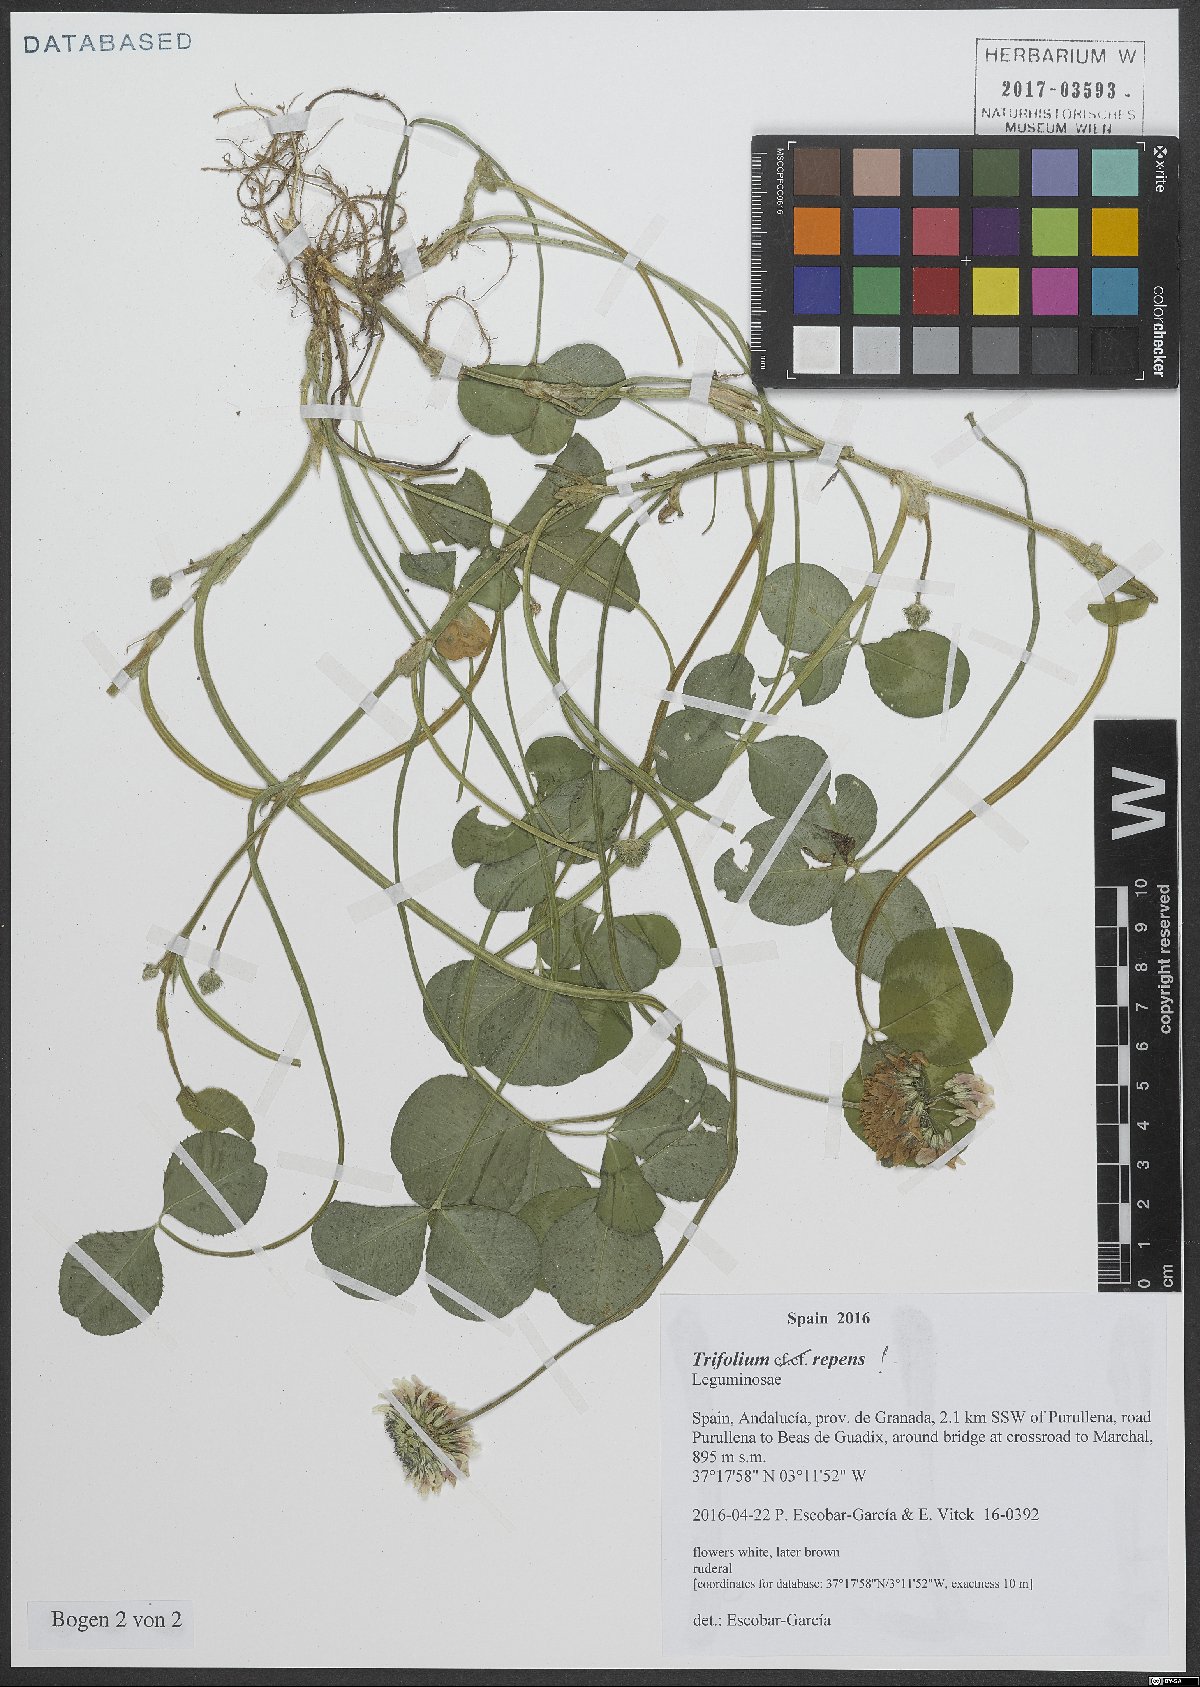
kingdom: Plantae
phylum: Tracheophyta
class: Magnoliopsida
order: Fabales
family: Fabaceae
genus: Trifolium
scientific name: Trifolium repens
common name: White clover
